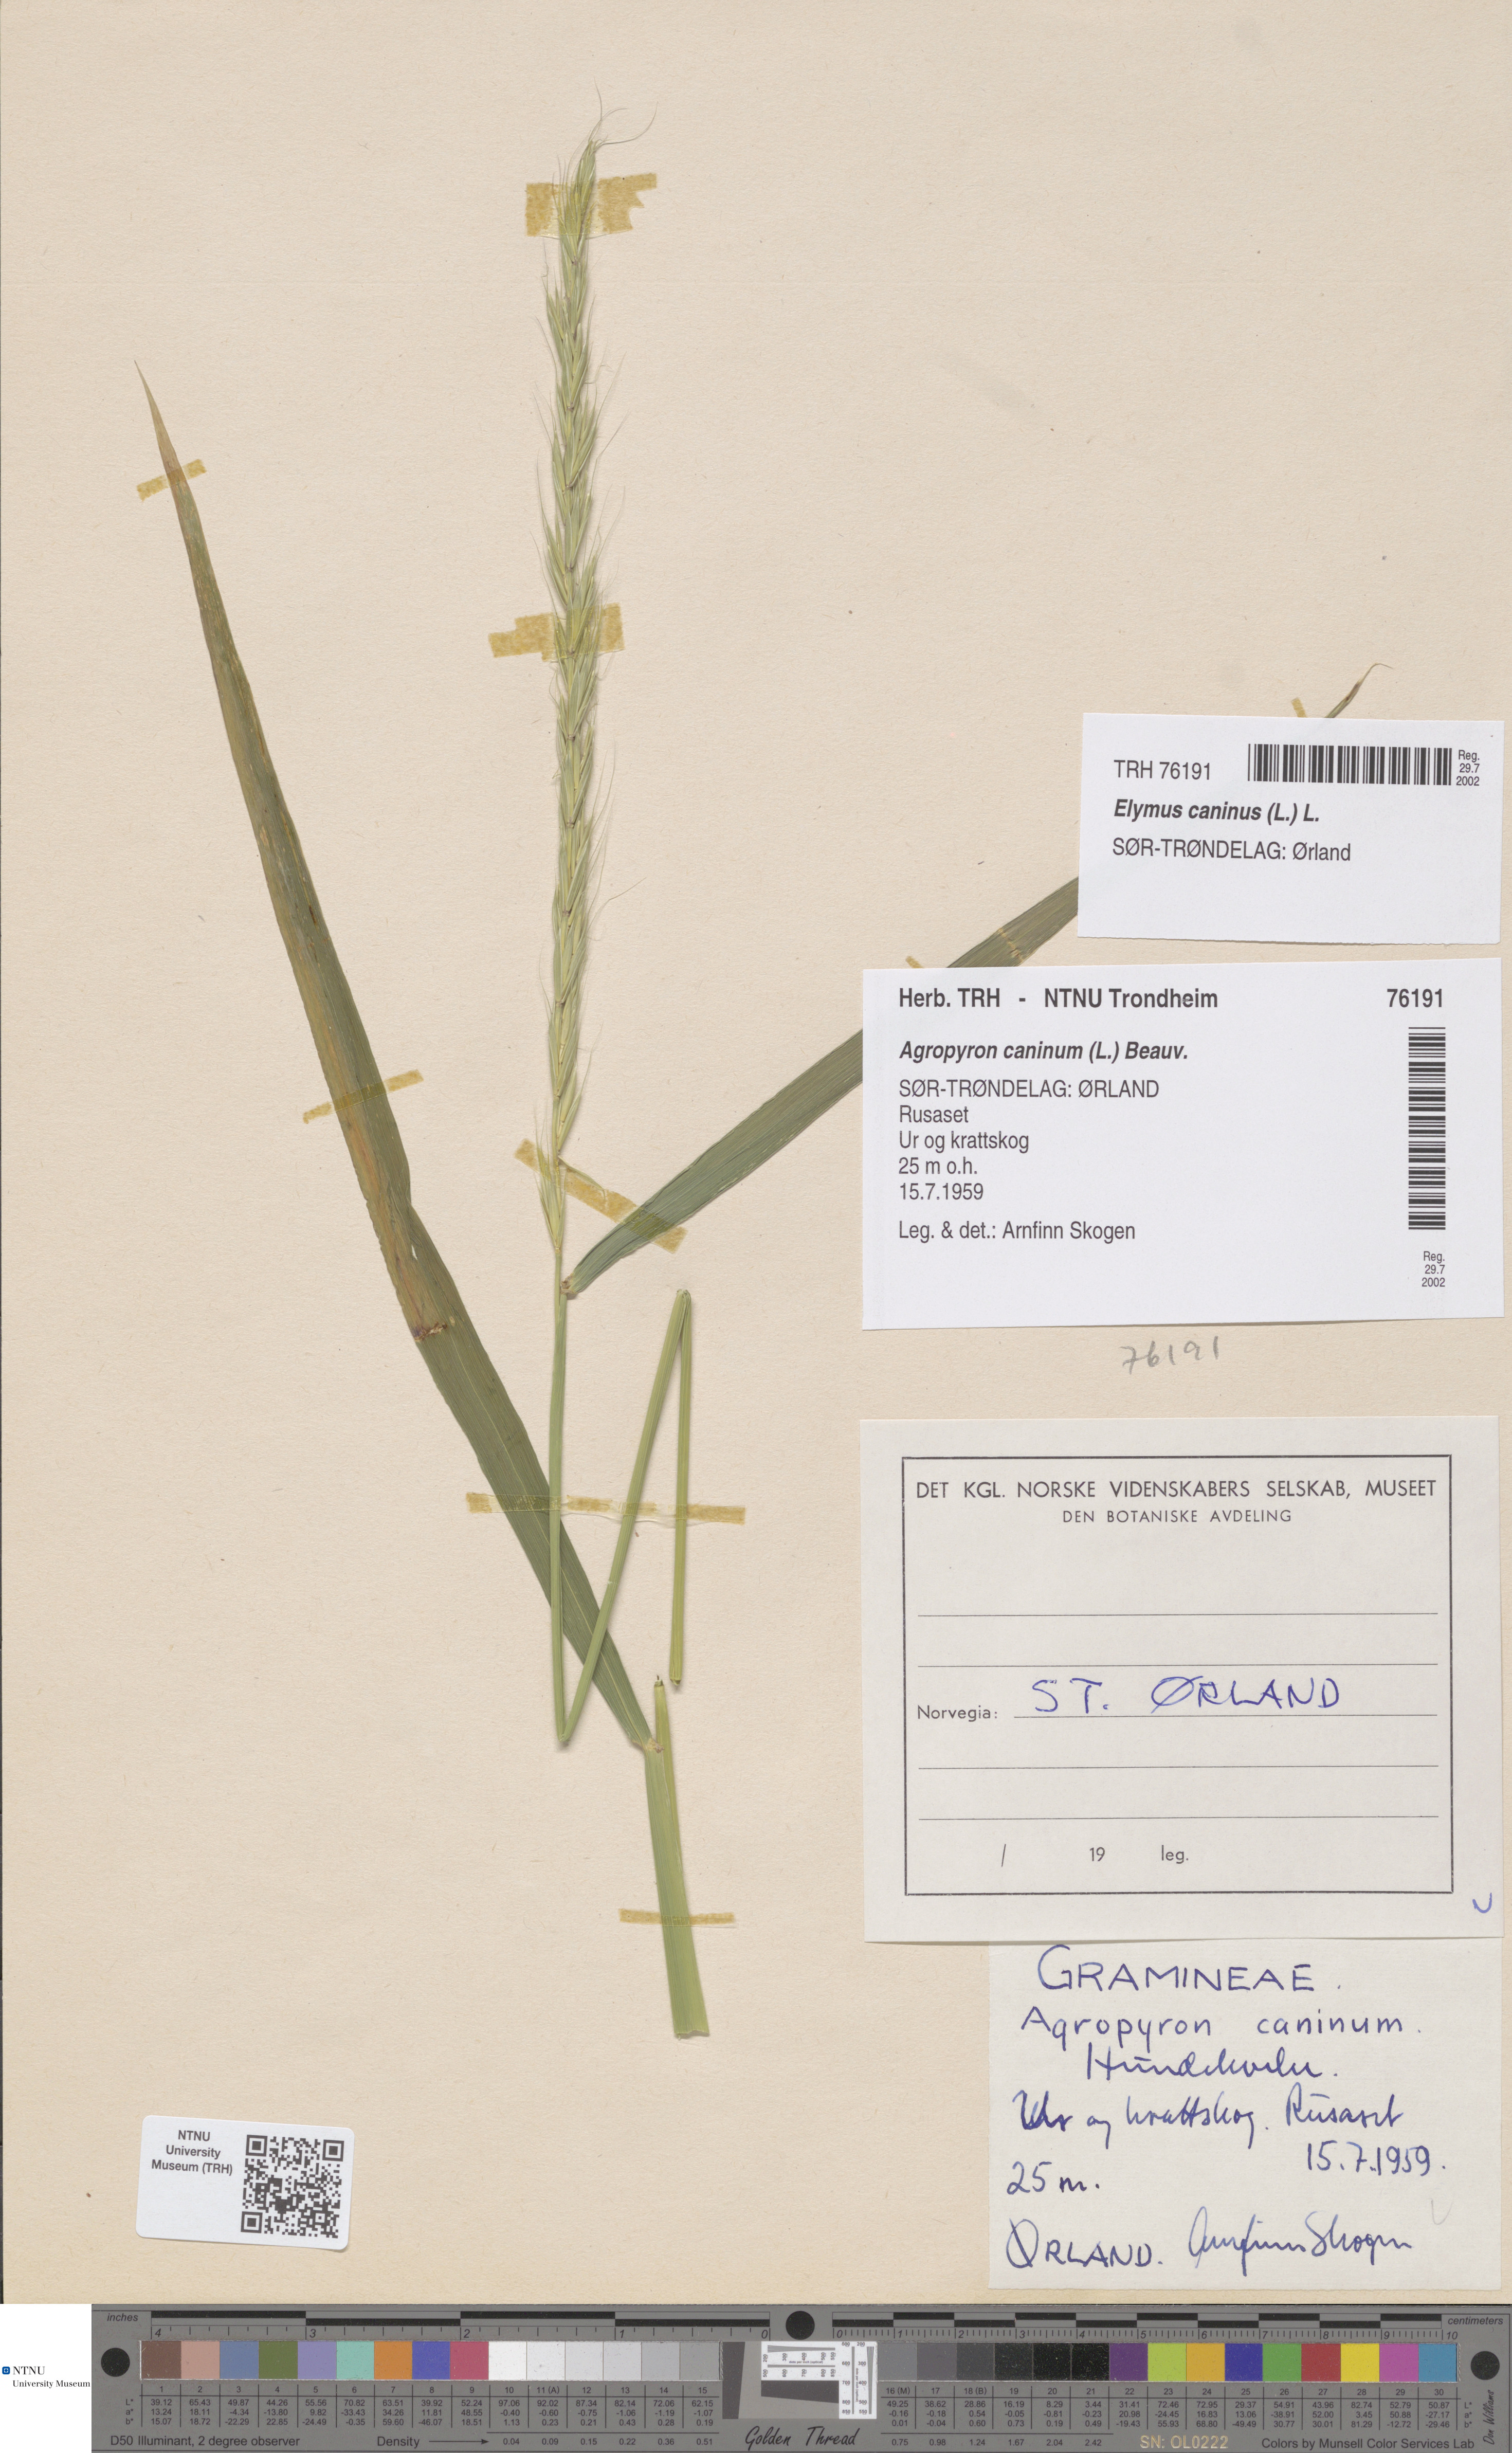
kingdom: Plantae
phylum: Tracheophyta
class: Liliopsida
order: Poales
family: Poaceae
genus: Elymus
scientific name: Elymus caninus
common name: Bearded couch
